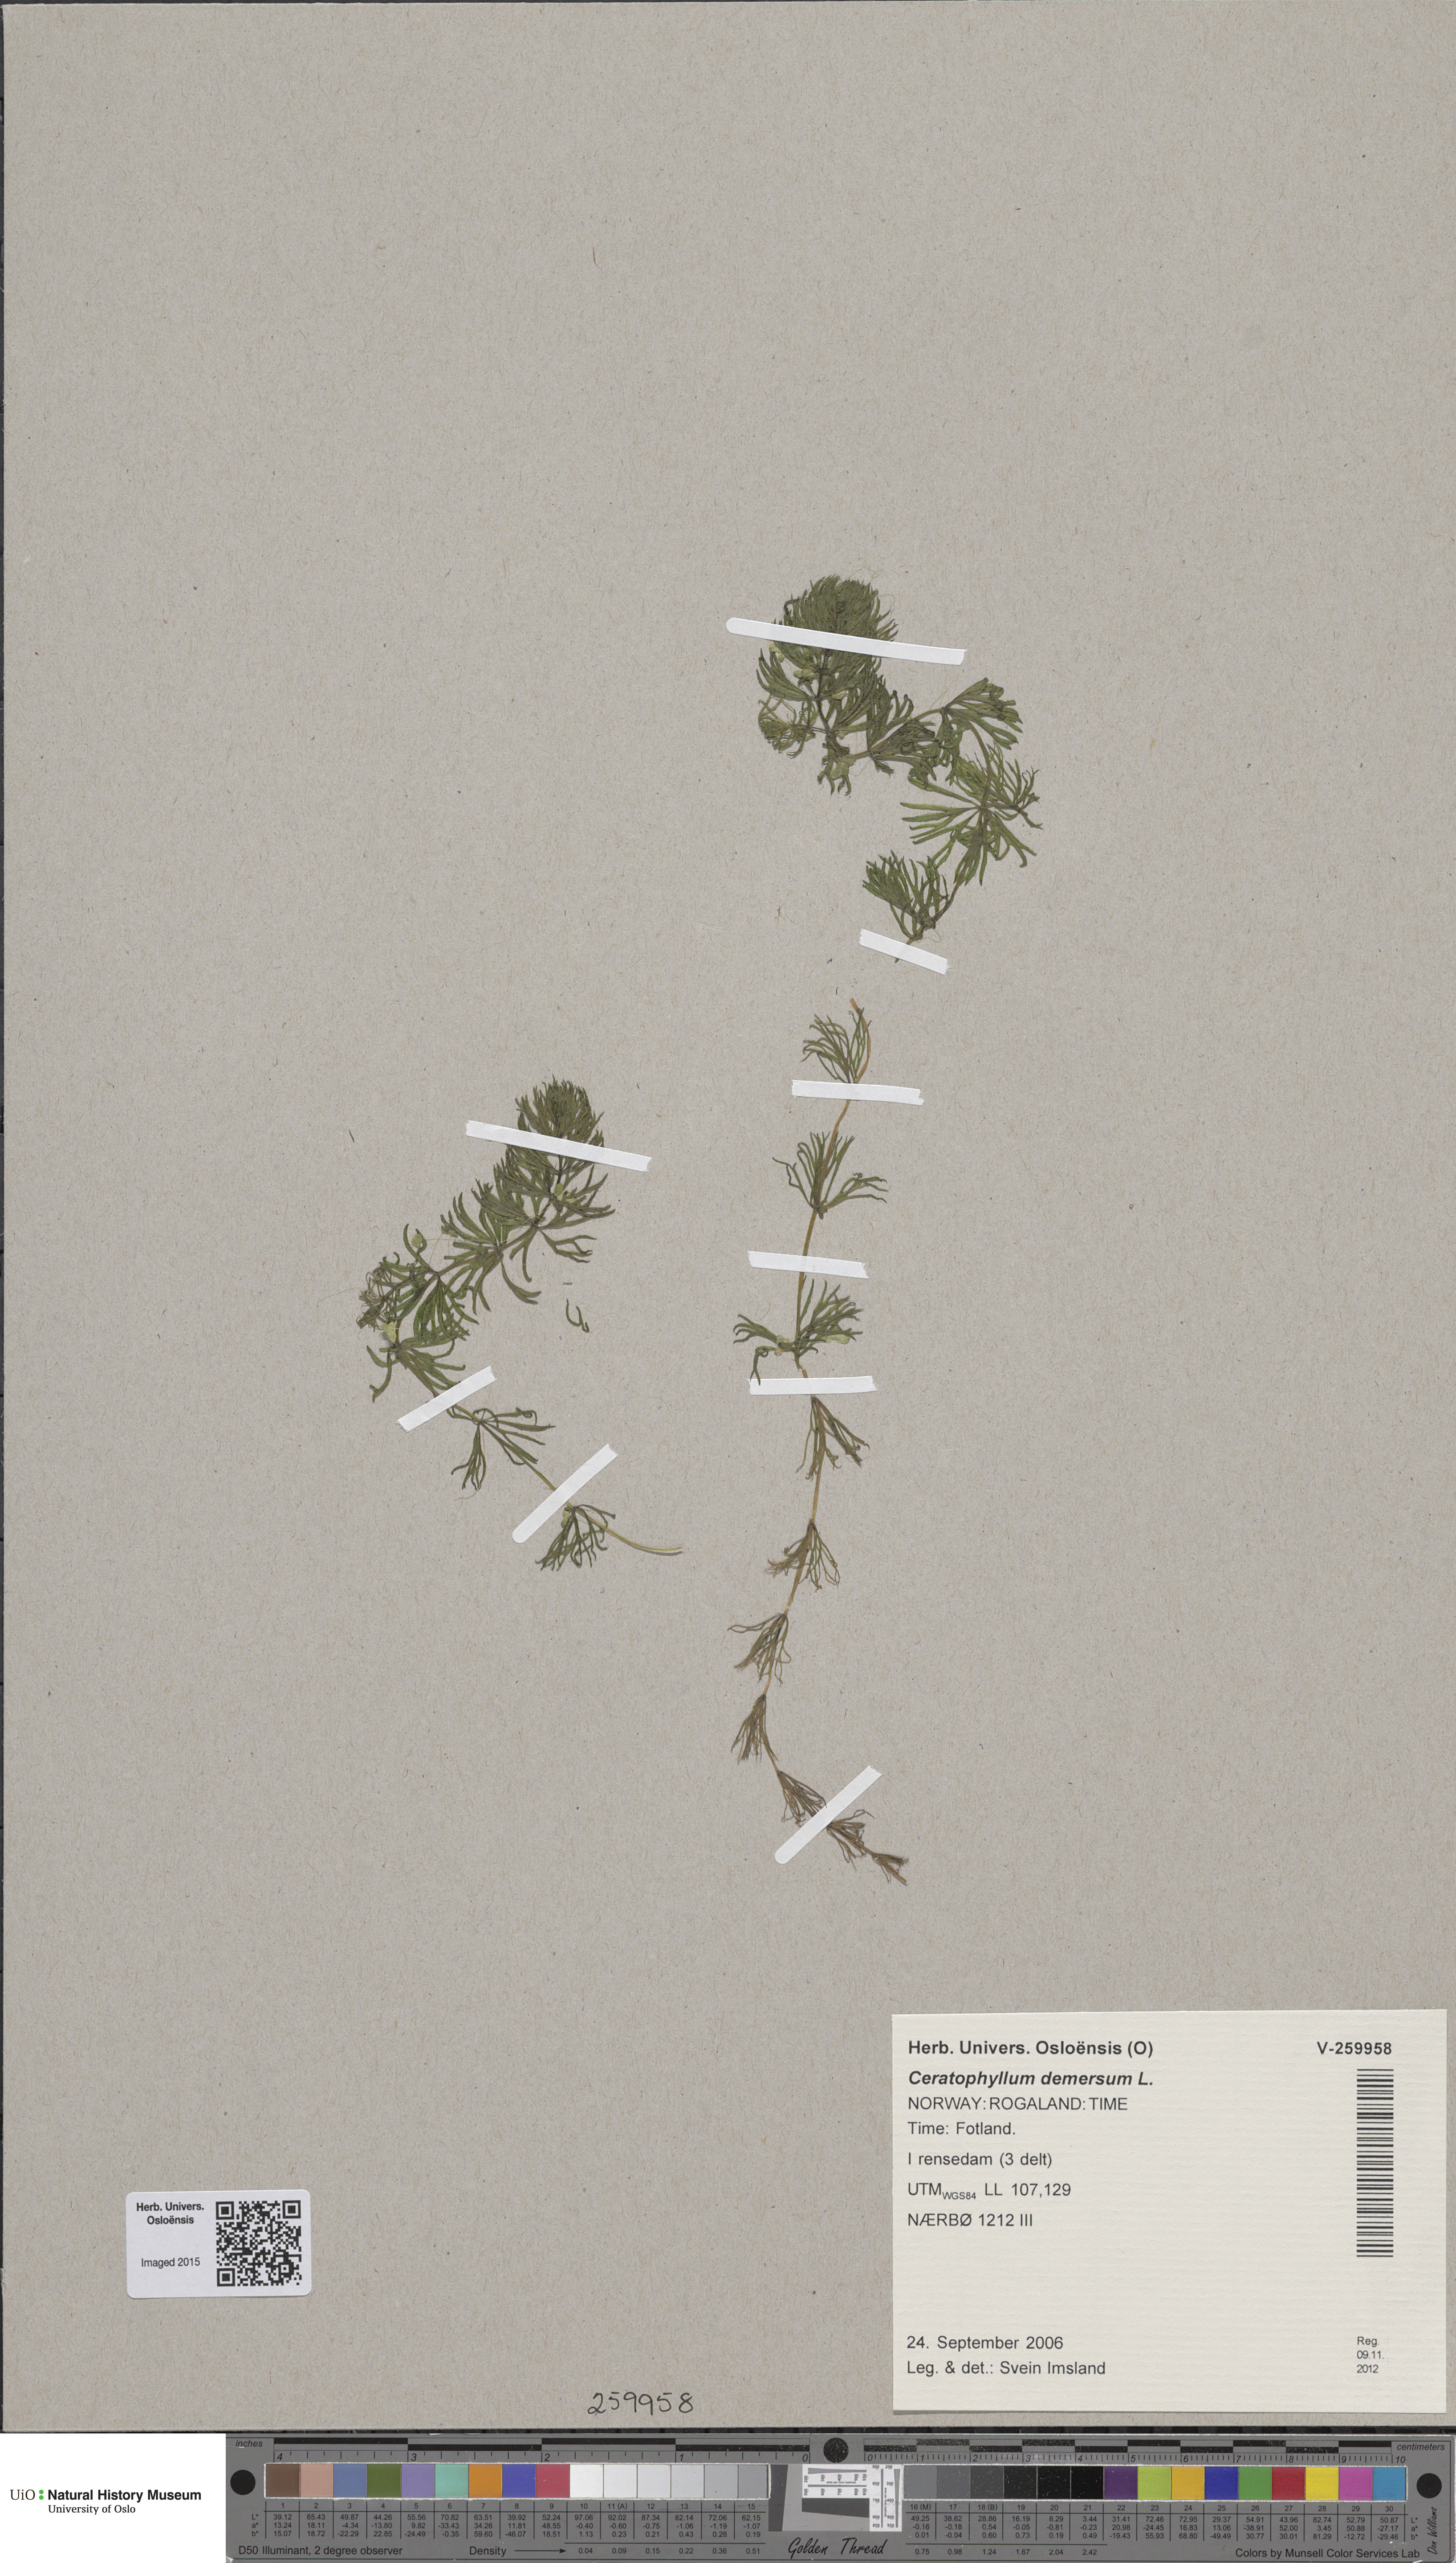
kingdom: Plantae
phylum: Tracheophyta
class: Magnoliopsida
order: Ceratophyllales
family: Ceratophyllaceae
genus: Ceratophyllum
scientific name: Ceratophyllum demersum
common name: Rigid hornwort
